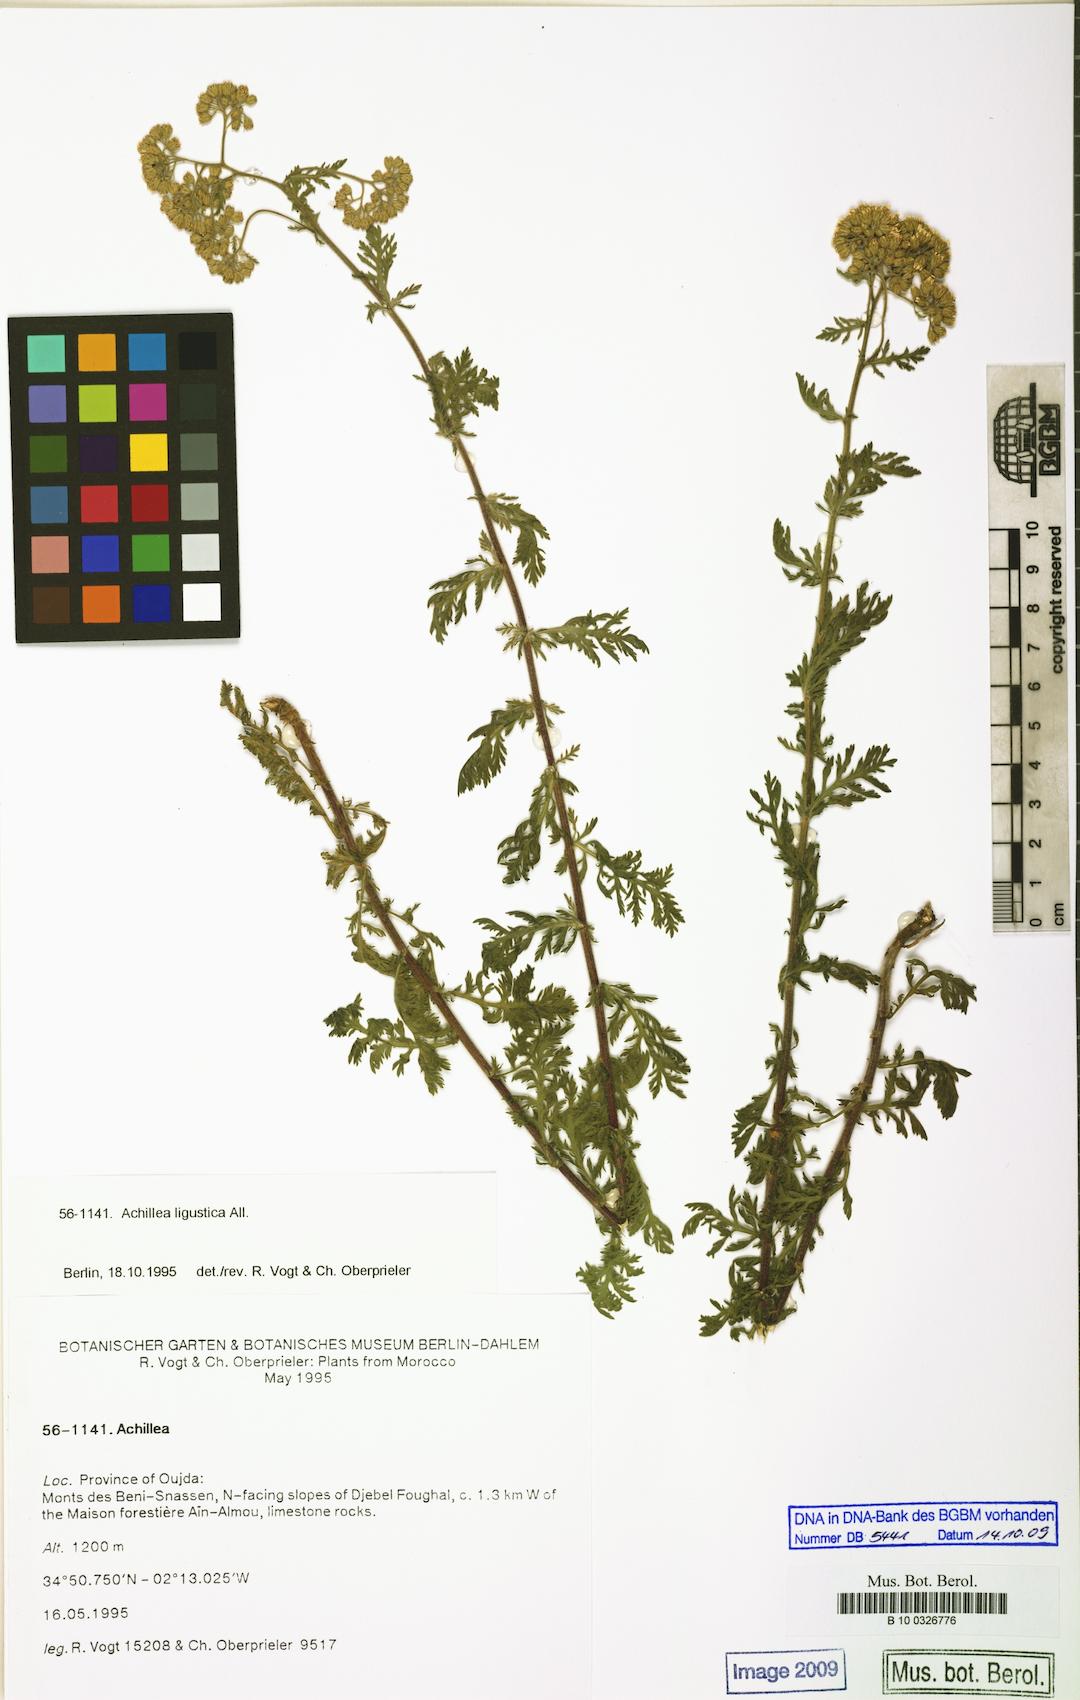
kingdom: Plantae
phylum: Tracheophyta
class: Magnoliopsida
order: Asterales
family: Asteraceae
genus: Achillea
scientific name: Achillea ligustica
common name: Southern yarrow
